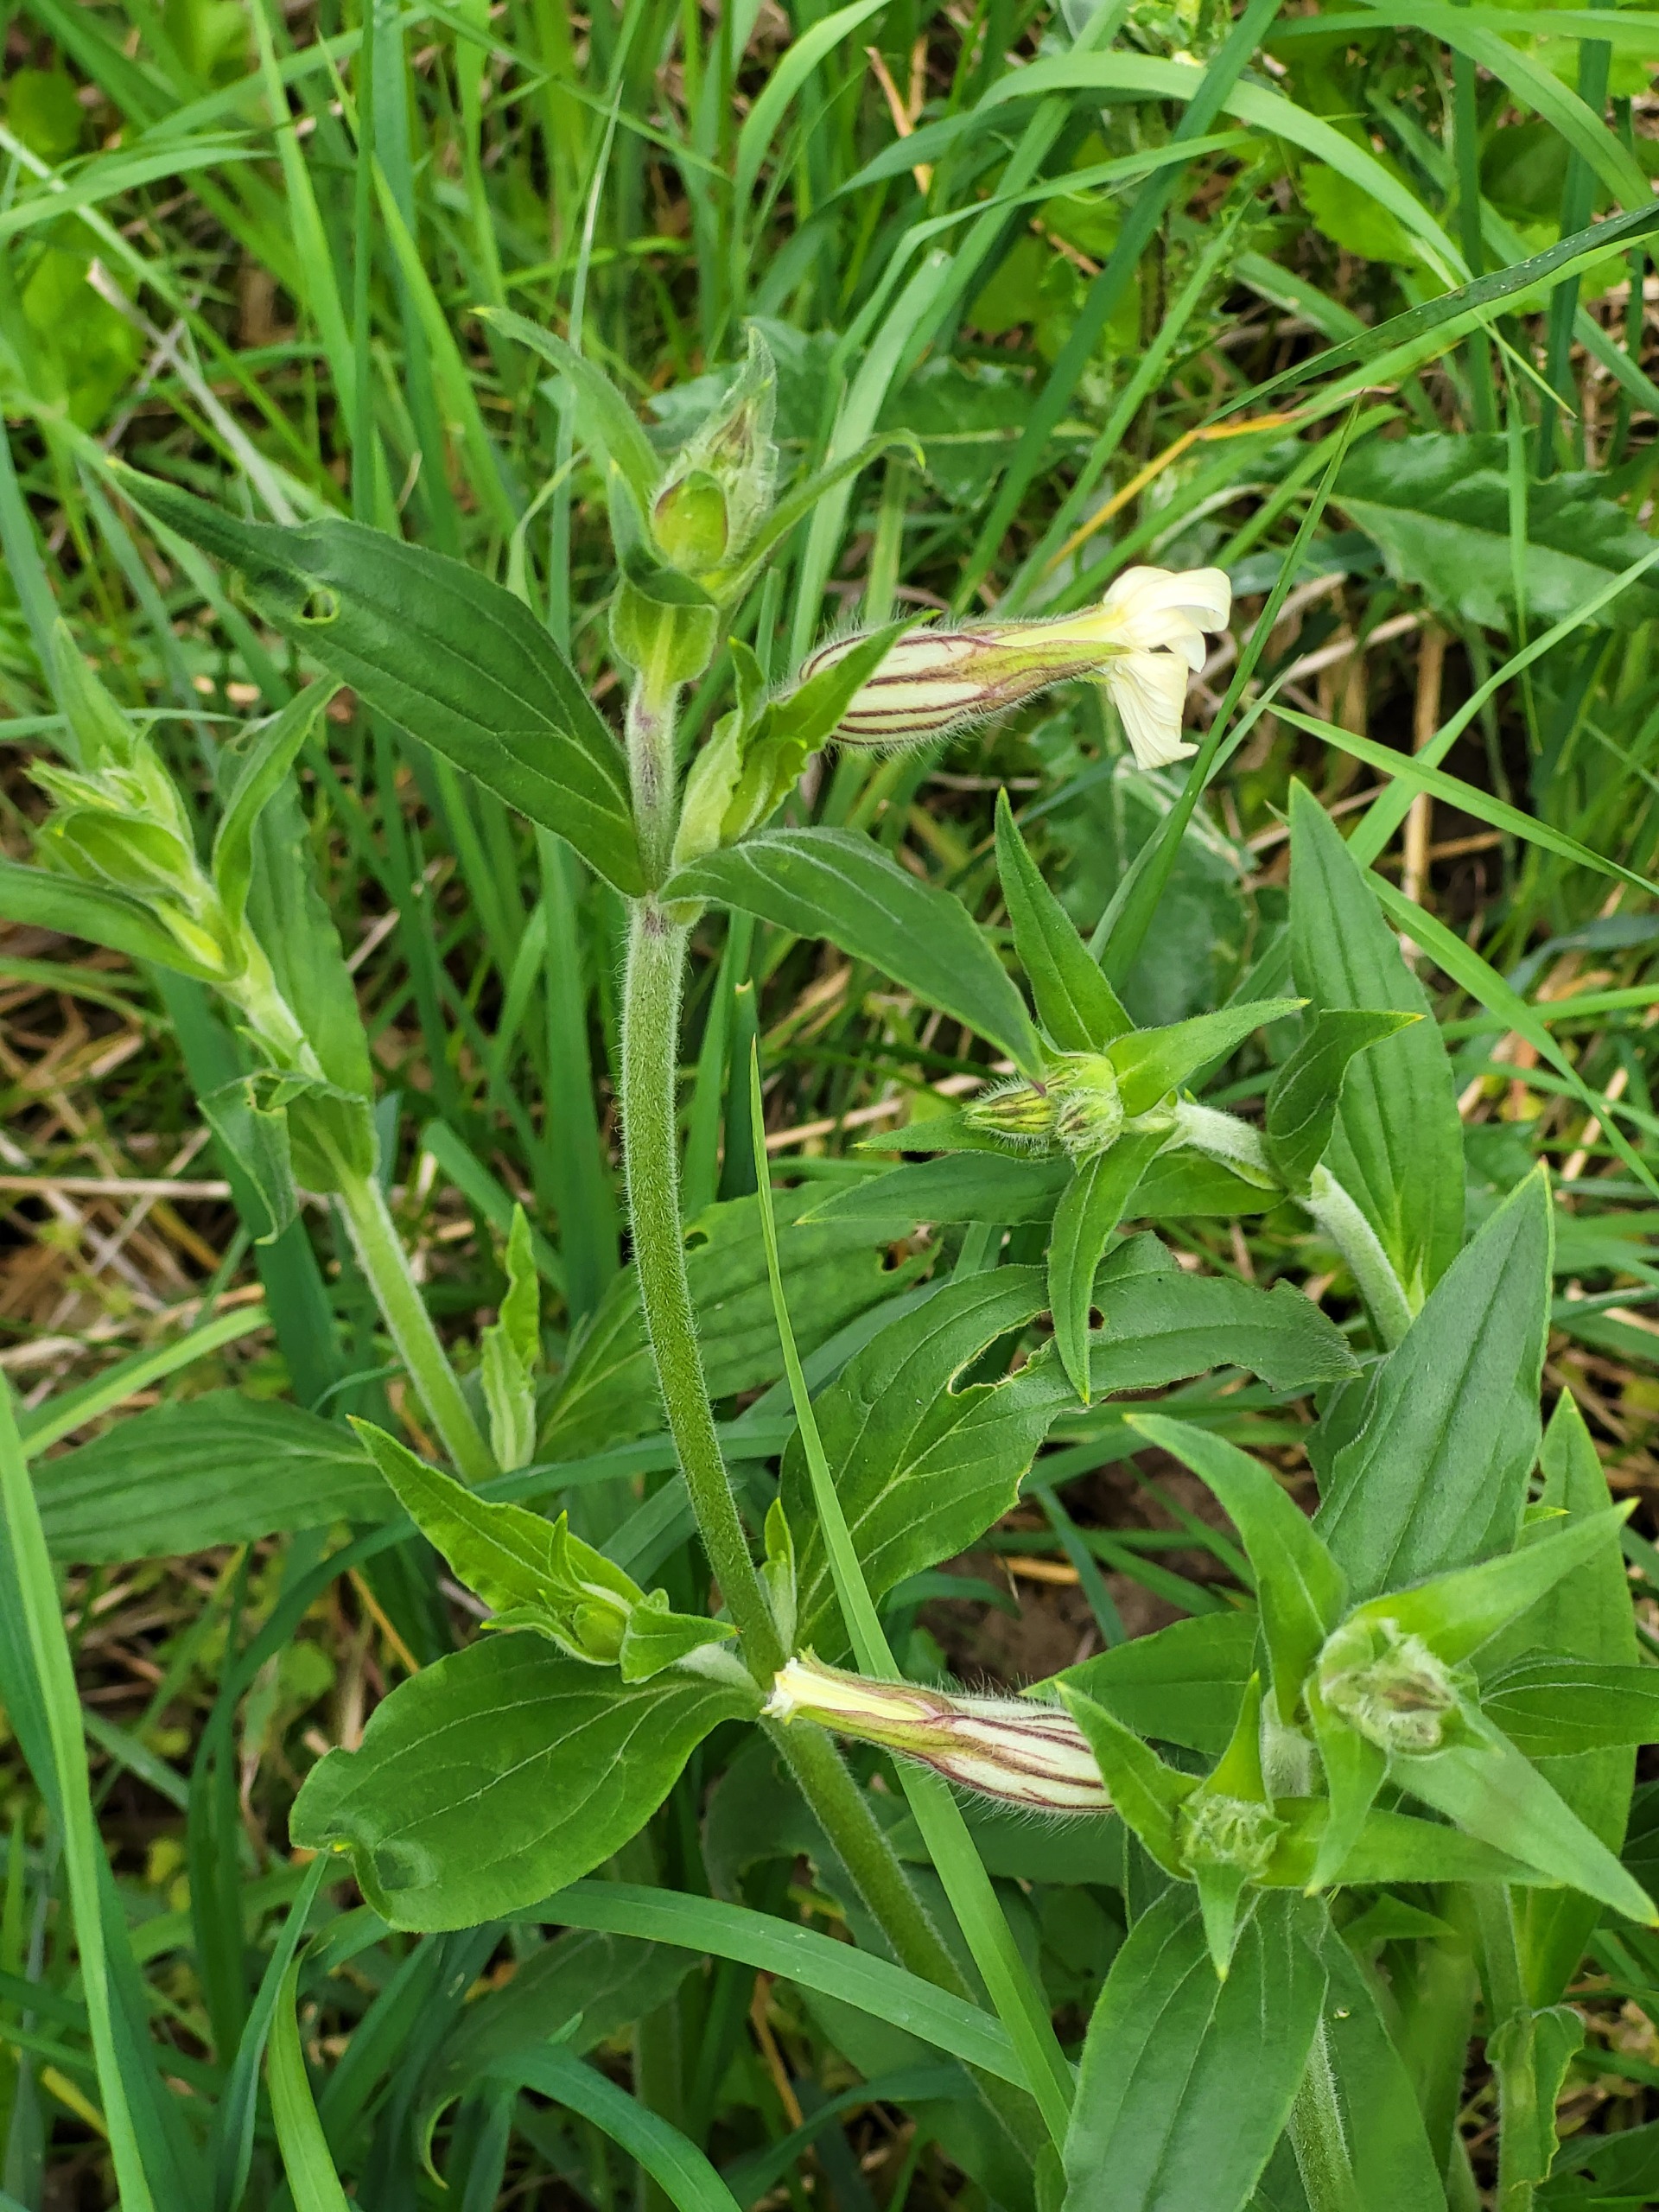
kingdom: Plantae
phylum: Tracheophyta
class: Magnoliopsida
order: Caryophyllales
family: Caryophyllaceae
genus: Silene
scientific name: Silene latifolia
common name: Aftenpragtstjerne
